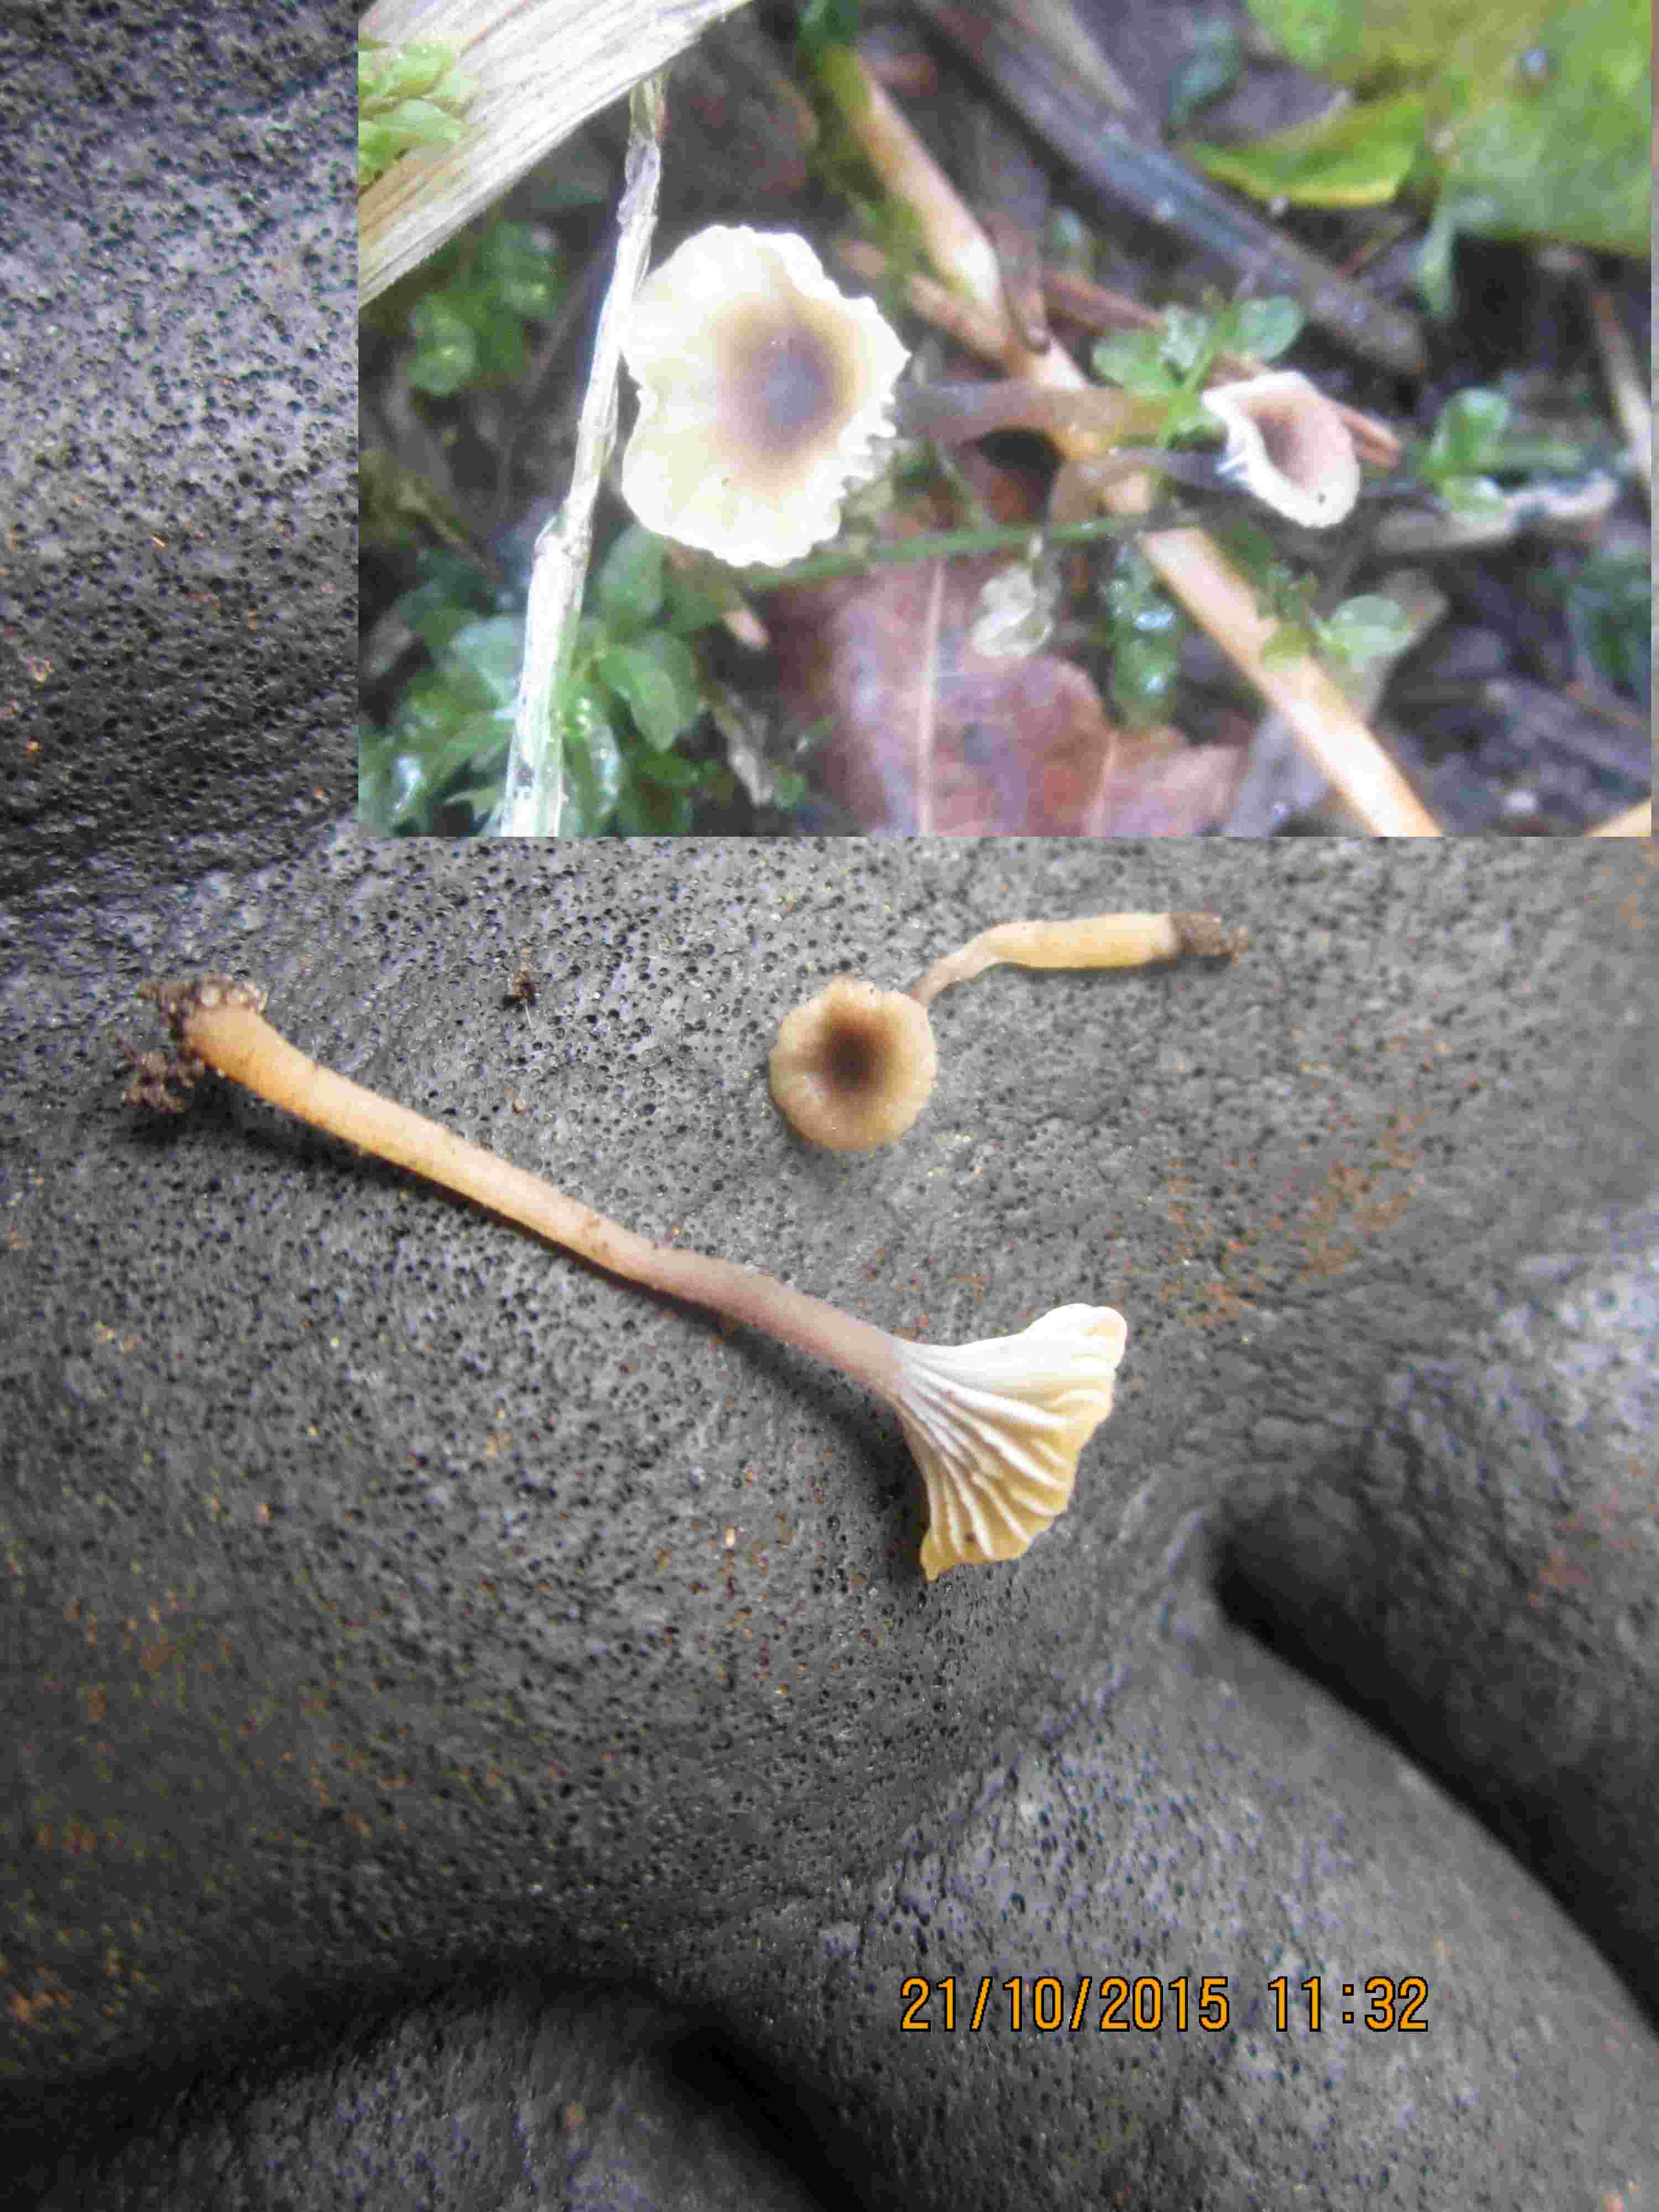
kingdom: Fungi
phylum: Basidiomycota
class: Agaricomycetes
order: Hymenochaetales
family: Rickenellaceae
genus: Rickenella
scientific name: Rickenella swartzii
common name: finstokket mosnavlehat
